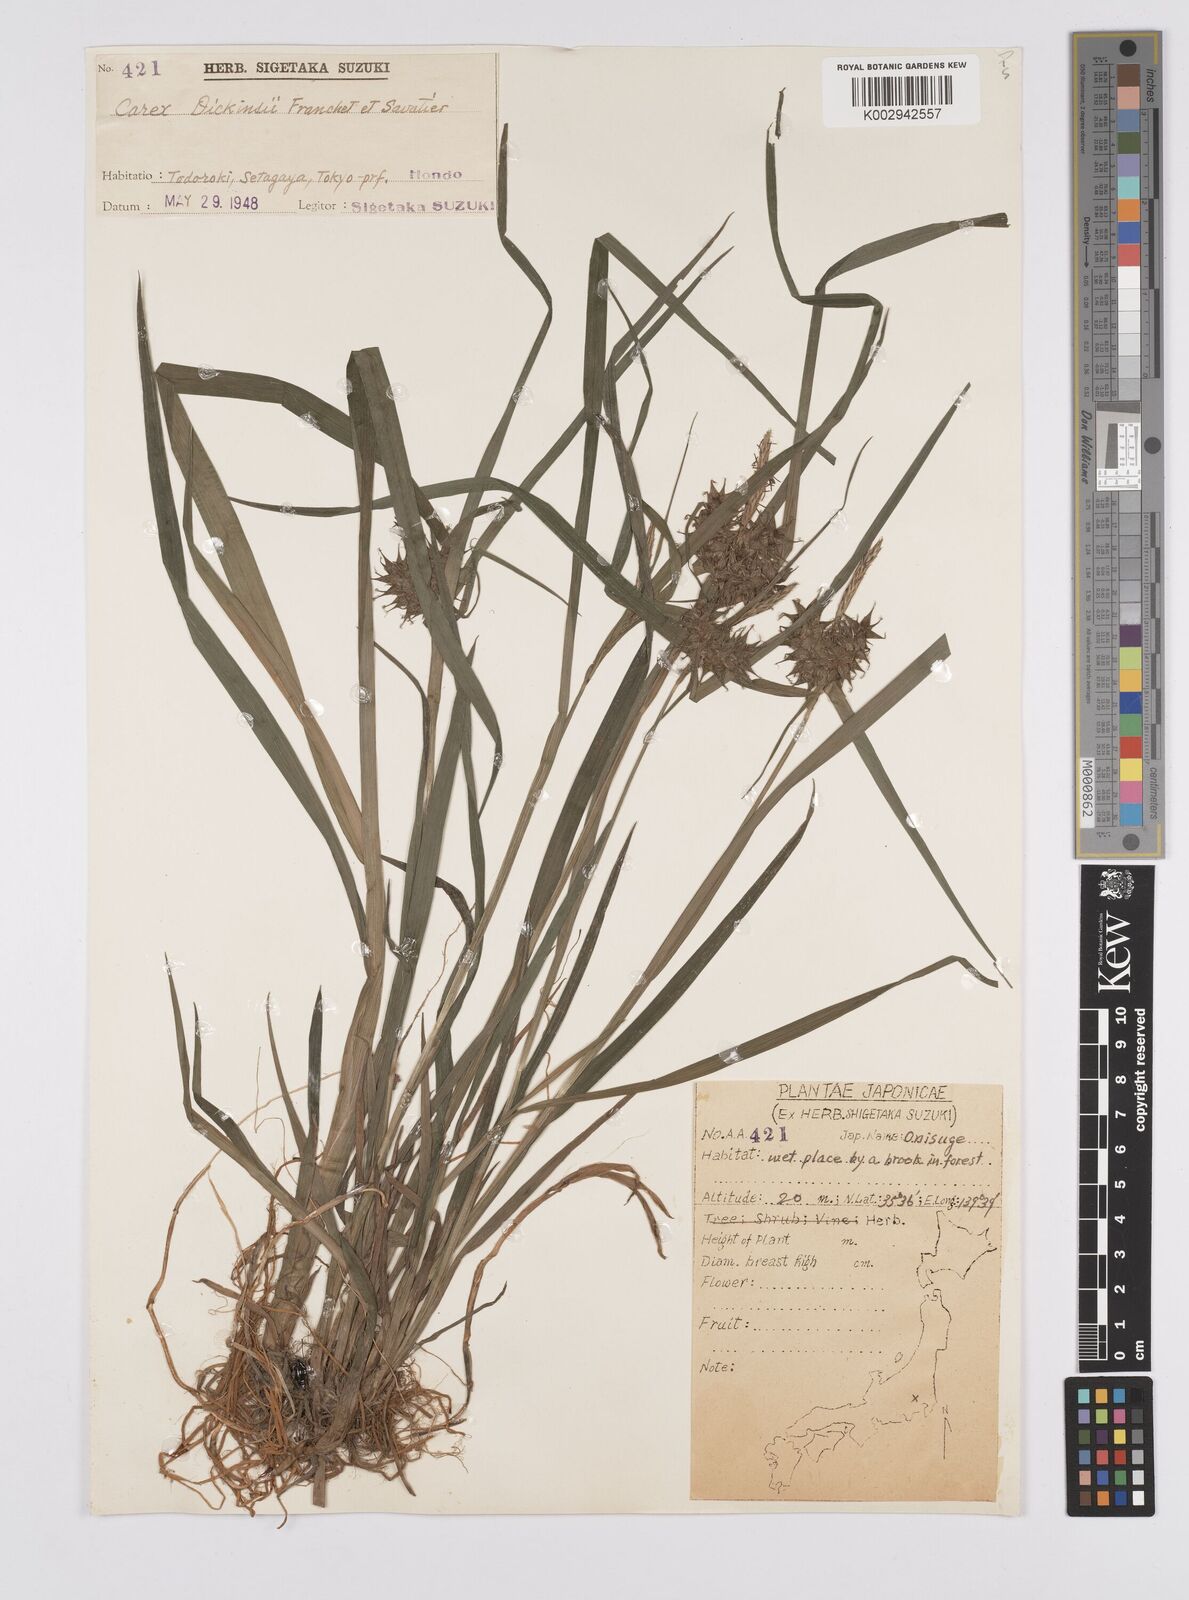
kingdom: Plantae
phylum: Tracheophyta
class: Liliopsida
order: Poales
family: Cyperaceae
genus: Carex
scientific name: Carex dickinsii
